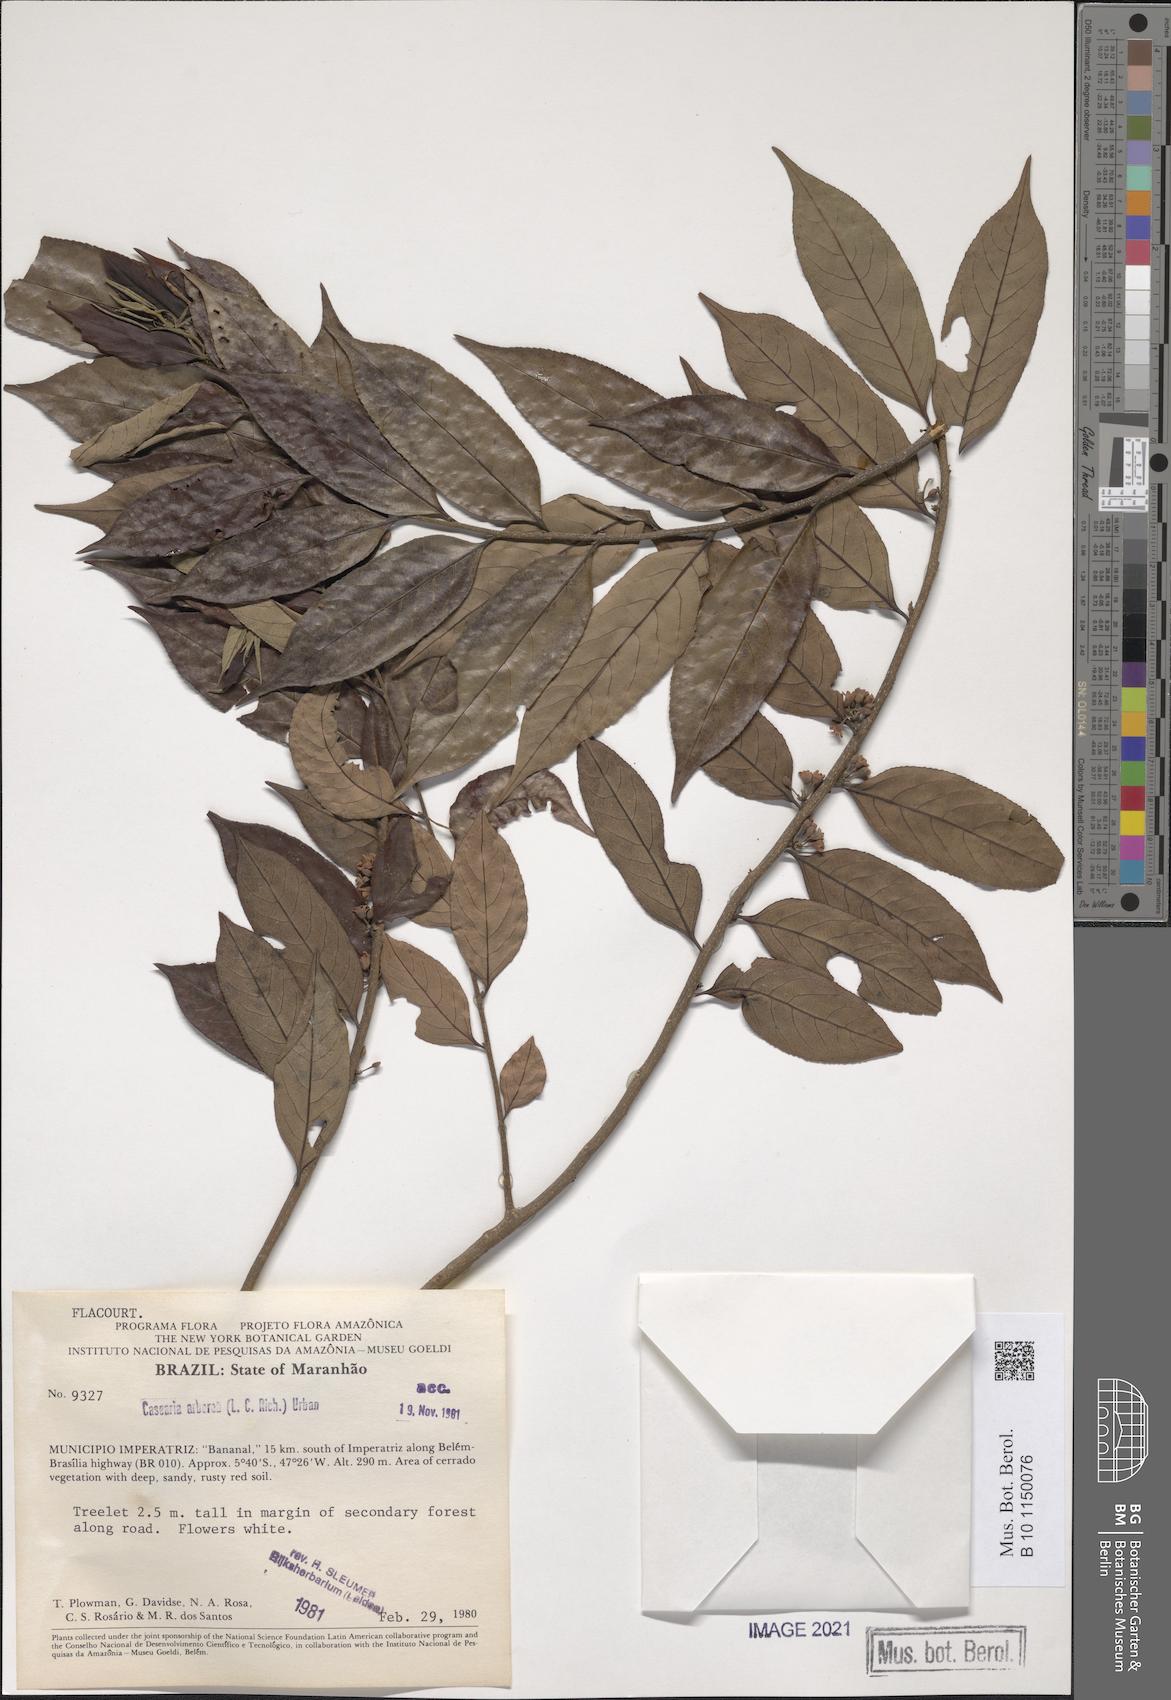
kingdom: Plantae
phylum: Tracheophyta
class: Magnoliopsida
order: Malpighiales
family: Salicaceae
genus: Casearia
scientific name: Casearia arborea
